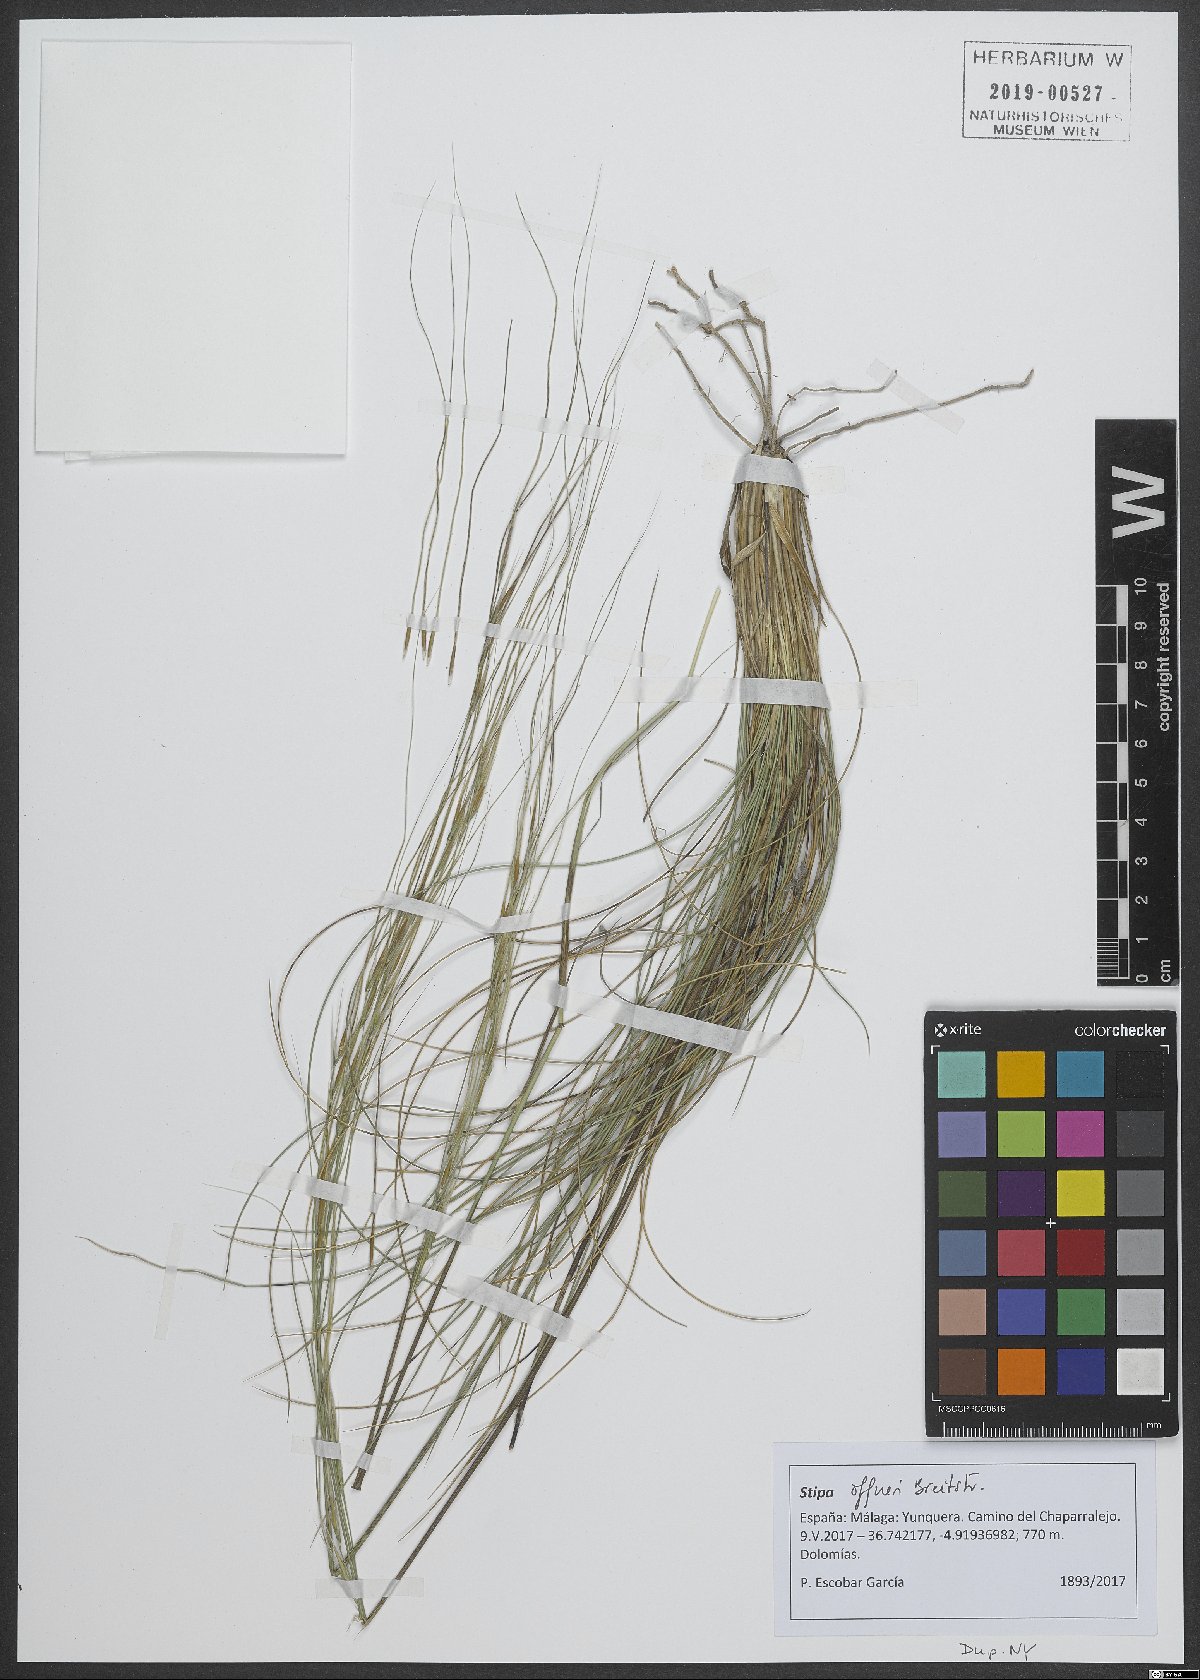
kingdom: Plantae
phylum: Tracheophyta
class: Liliopsida
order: Poales
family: Poaceae
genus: Stipa
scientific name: Stipa offneri
